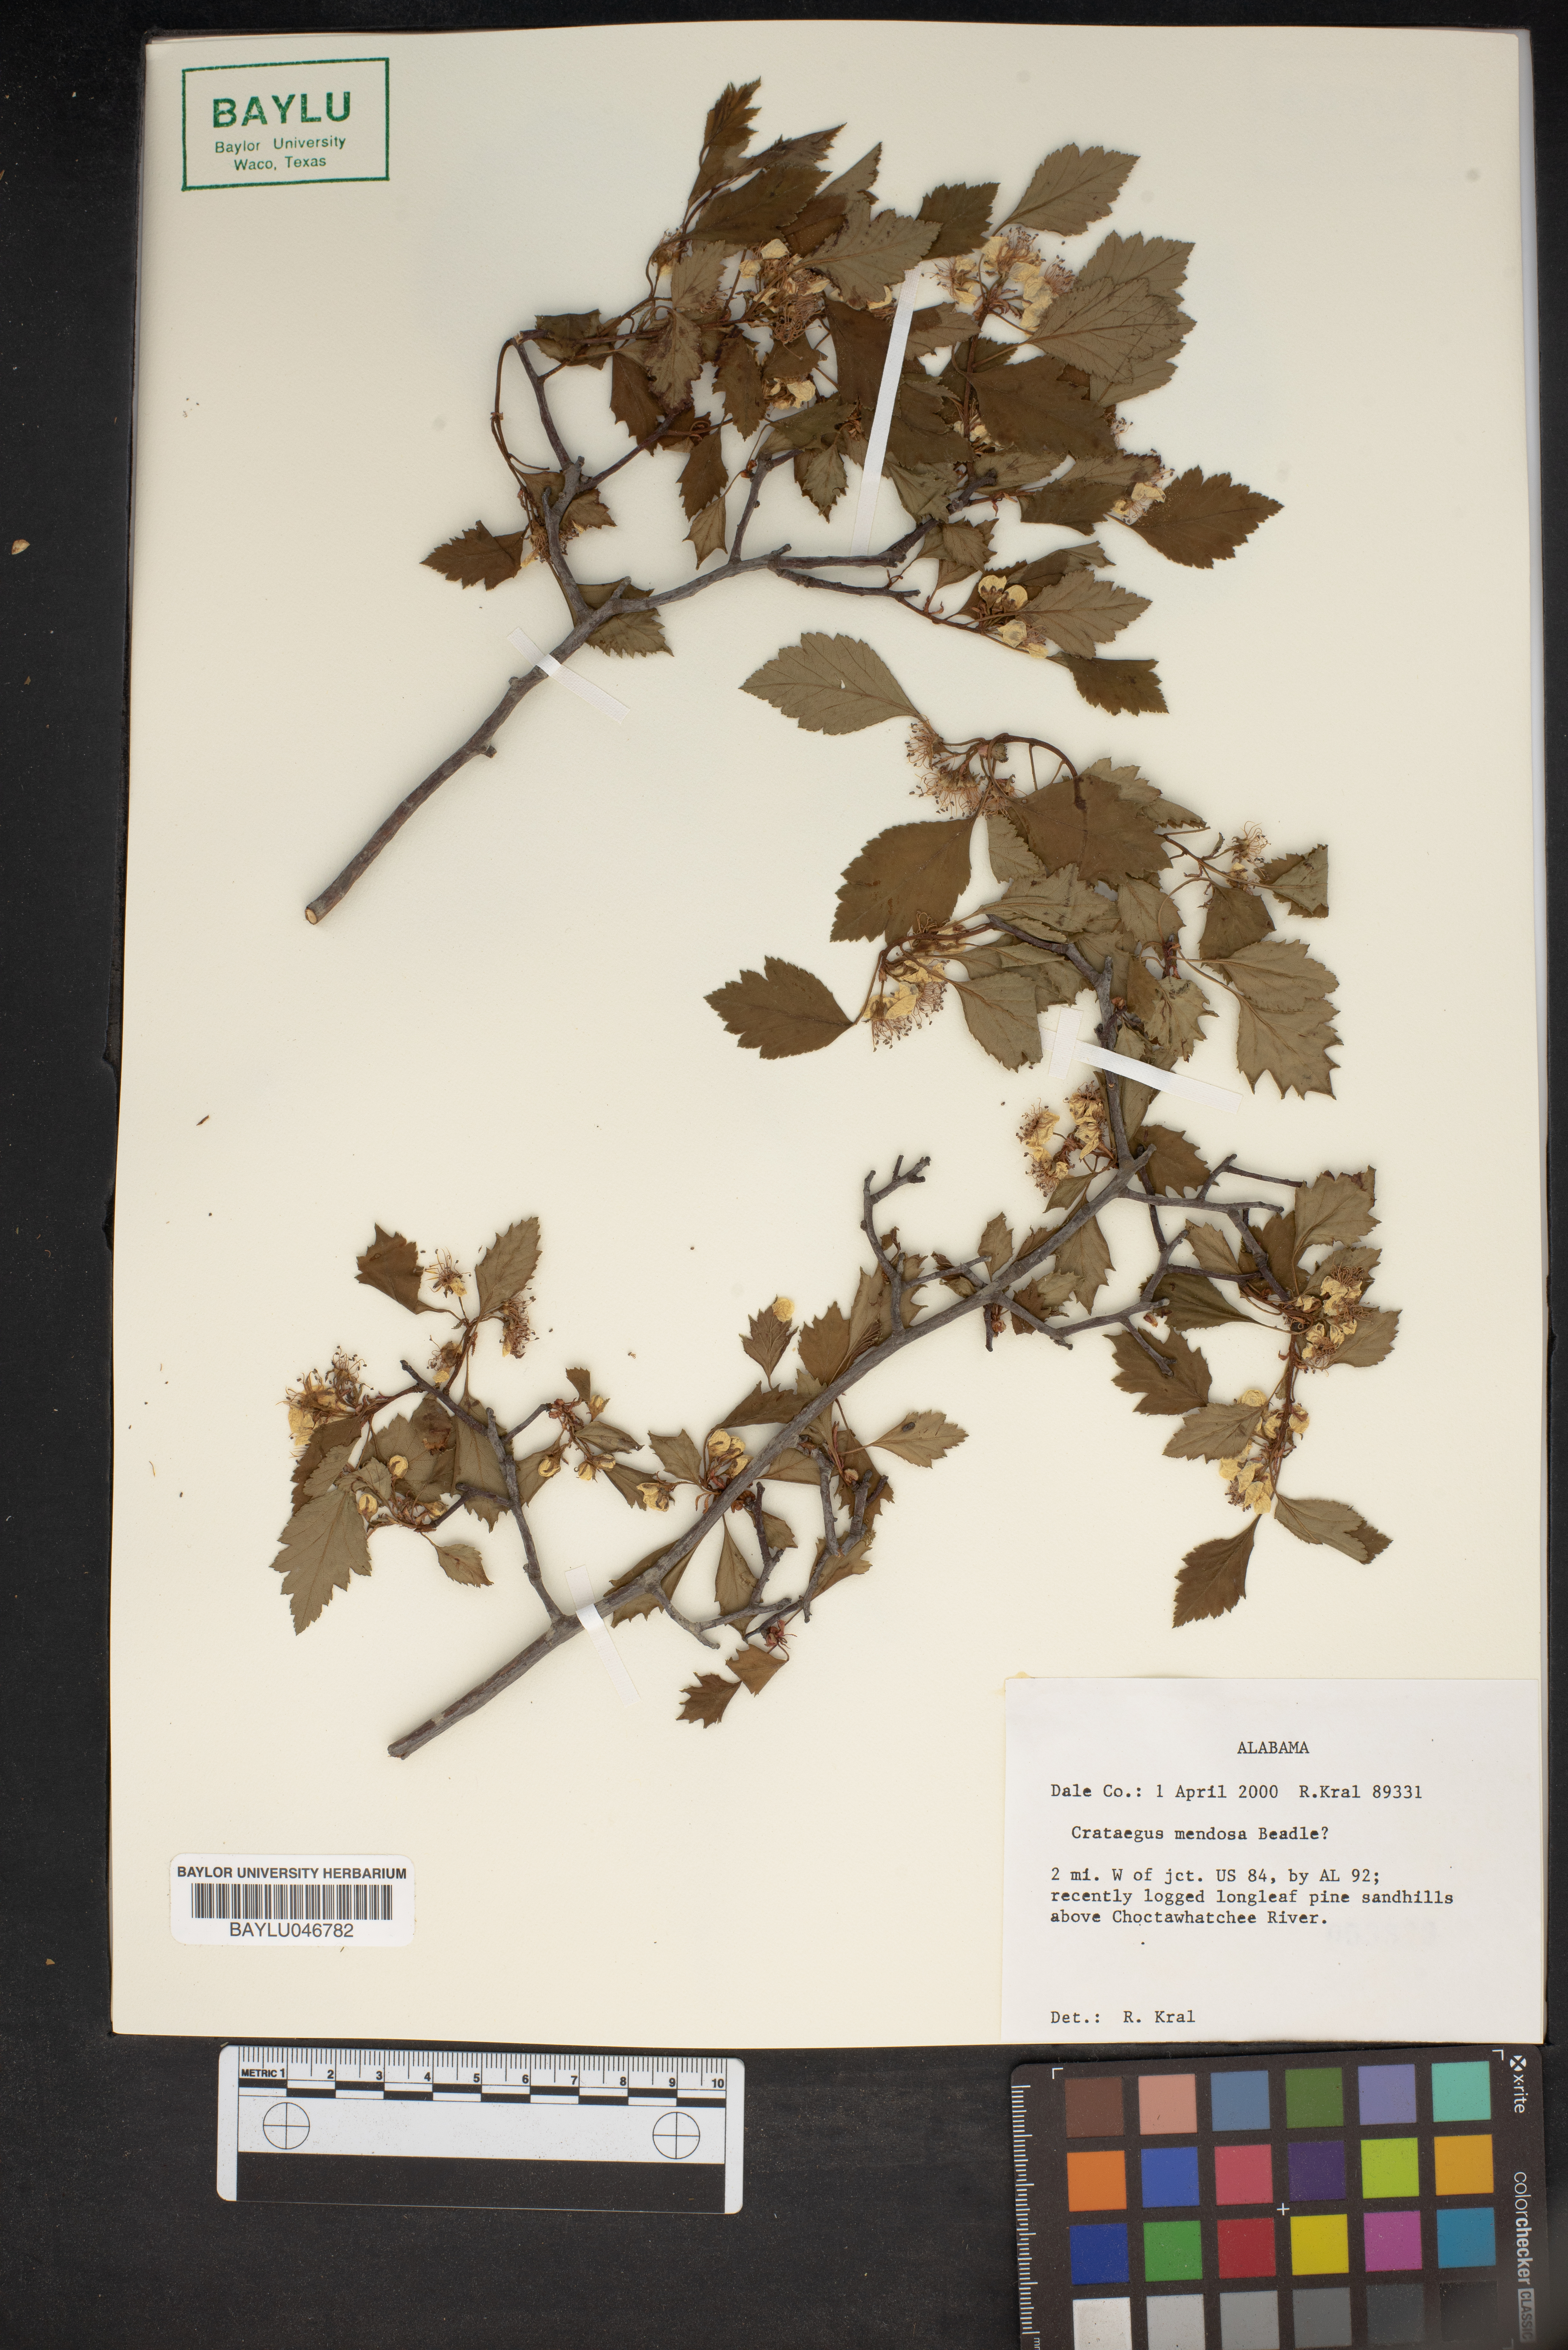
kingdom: Plantae
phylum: Tracheophyta
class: Magnoliopsida
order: Rosales
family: Rosaceae
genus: Crataegus
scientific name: Crataegus pulcherrima
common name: Beautiful hawthorn
